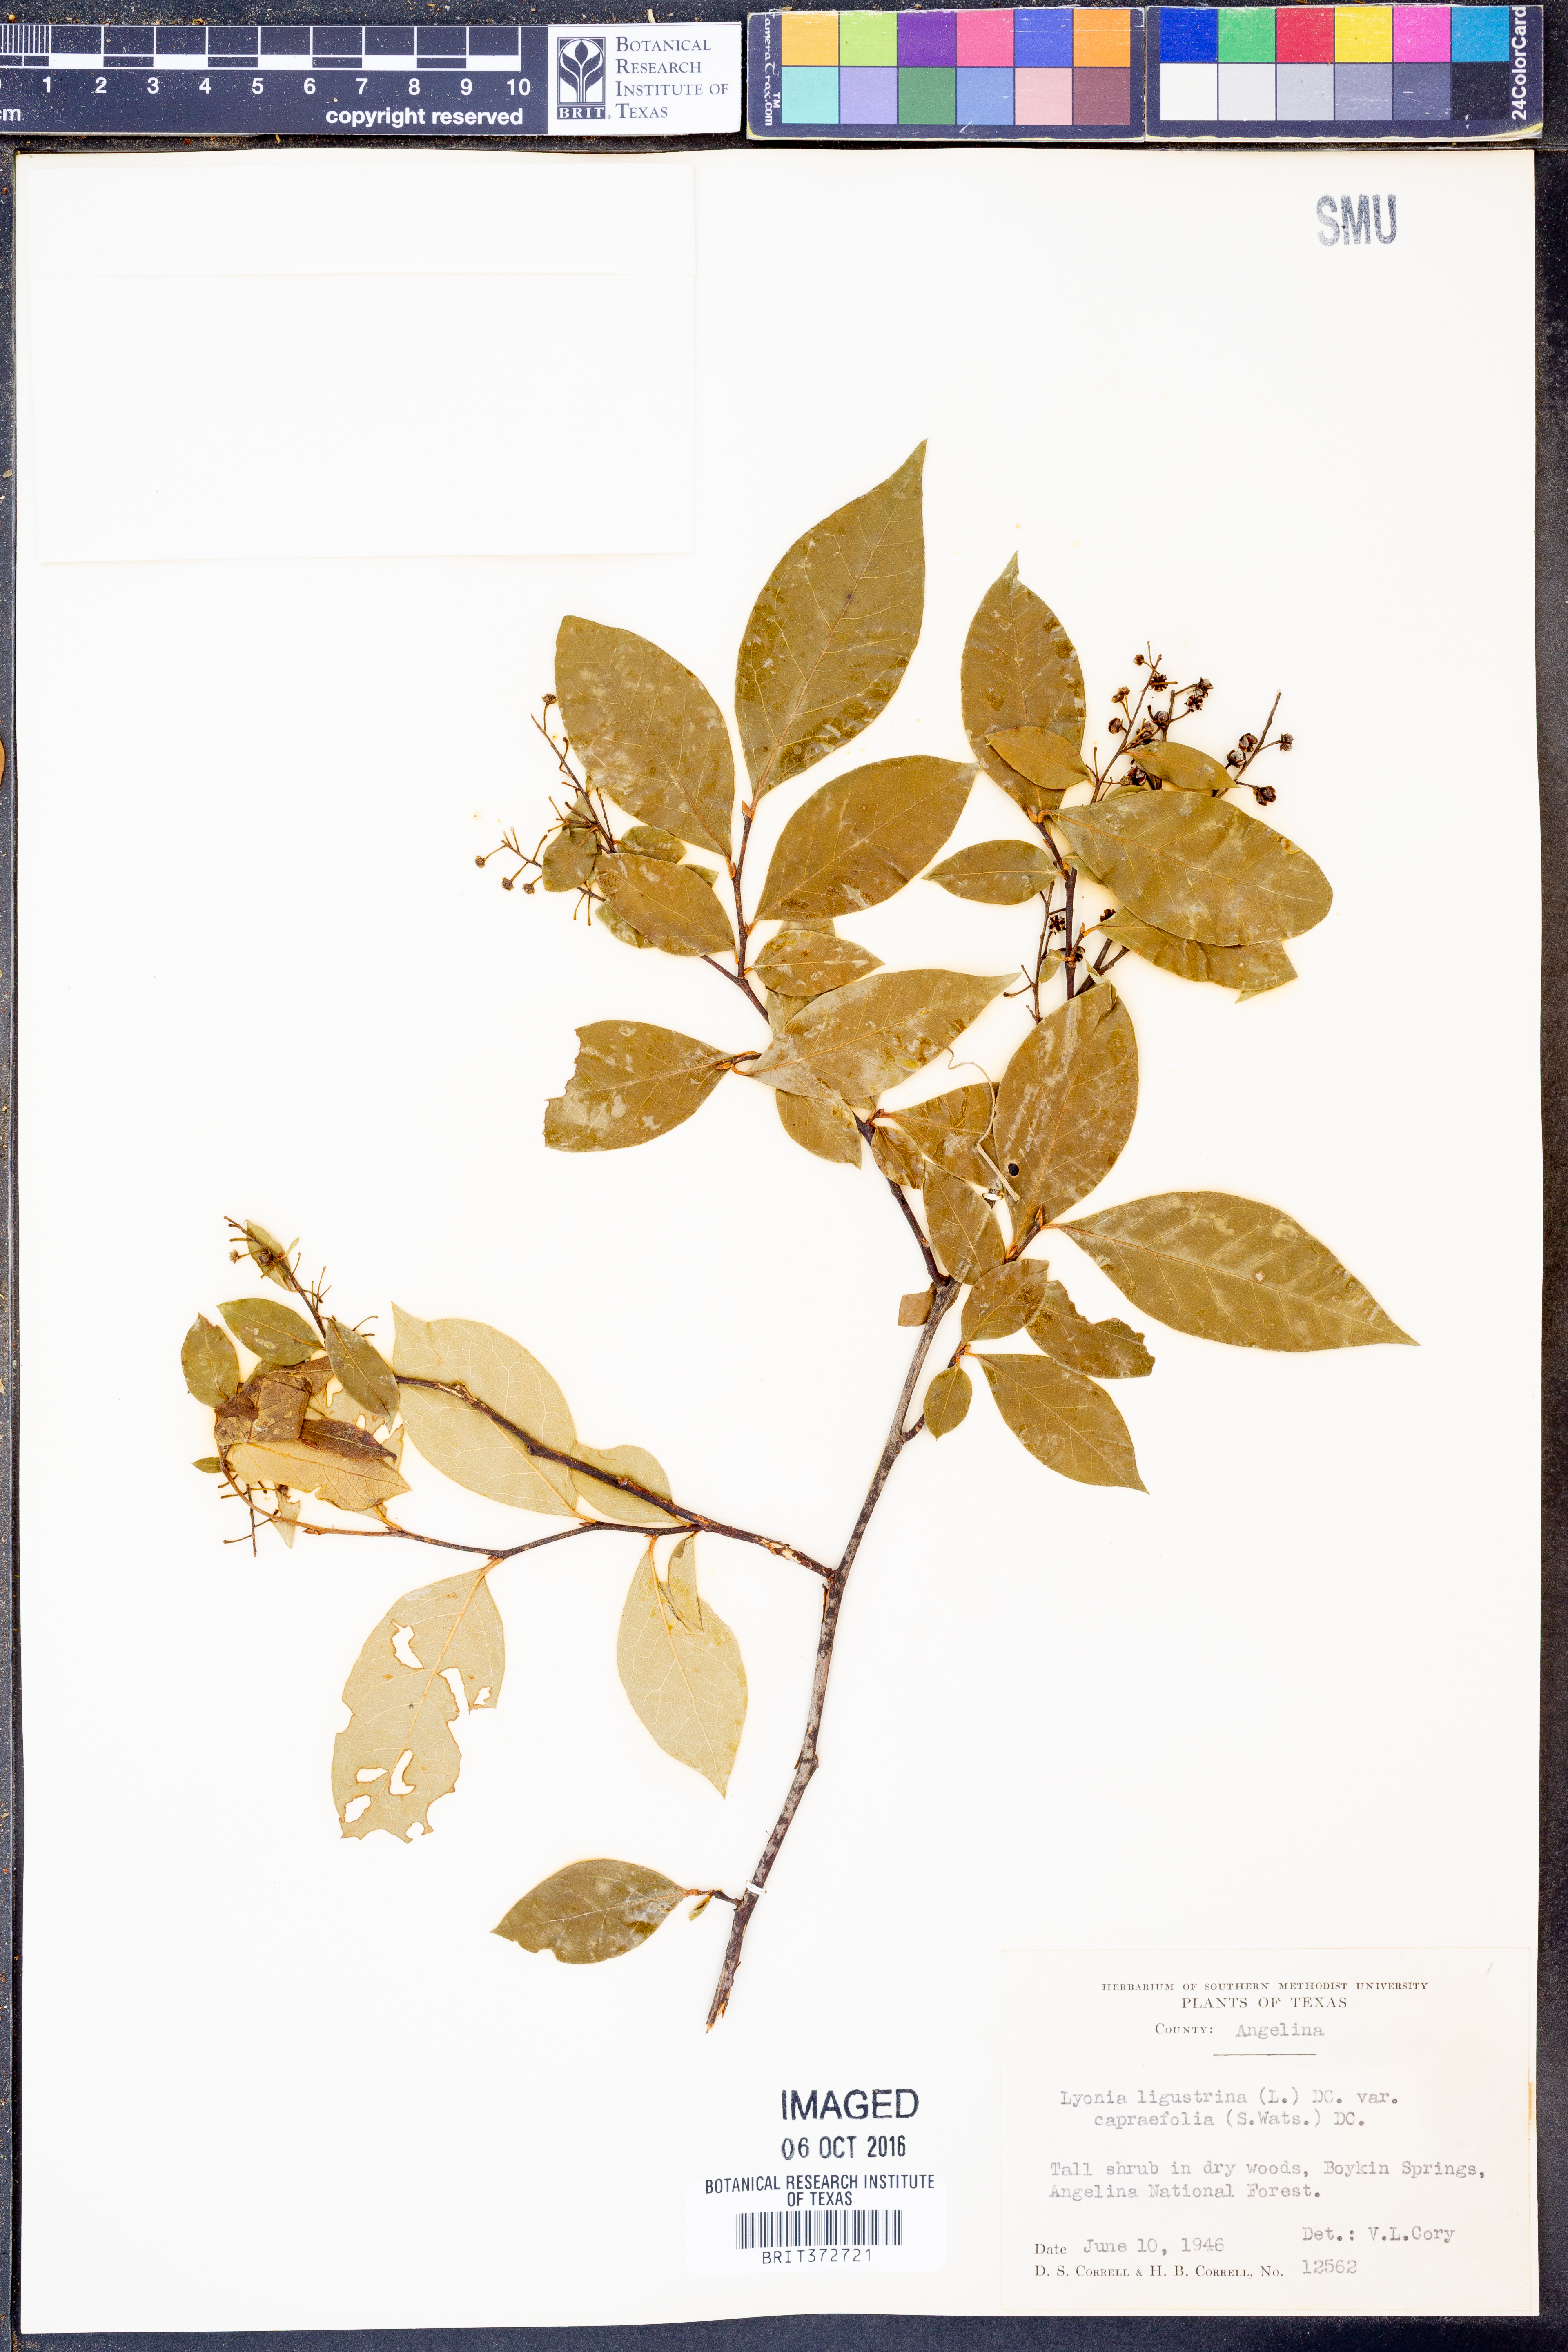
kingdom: Plantae
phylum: Tracheophyta
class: Magnoliopsida
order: Ericales
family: Ericaceae
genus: Lyonia
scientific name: Lyonia ligustrina
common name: Maleberry
